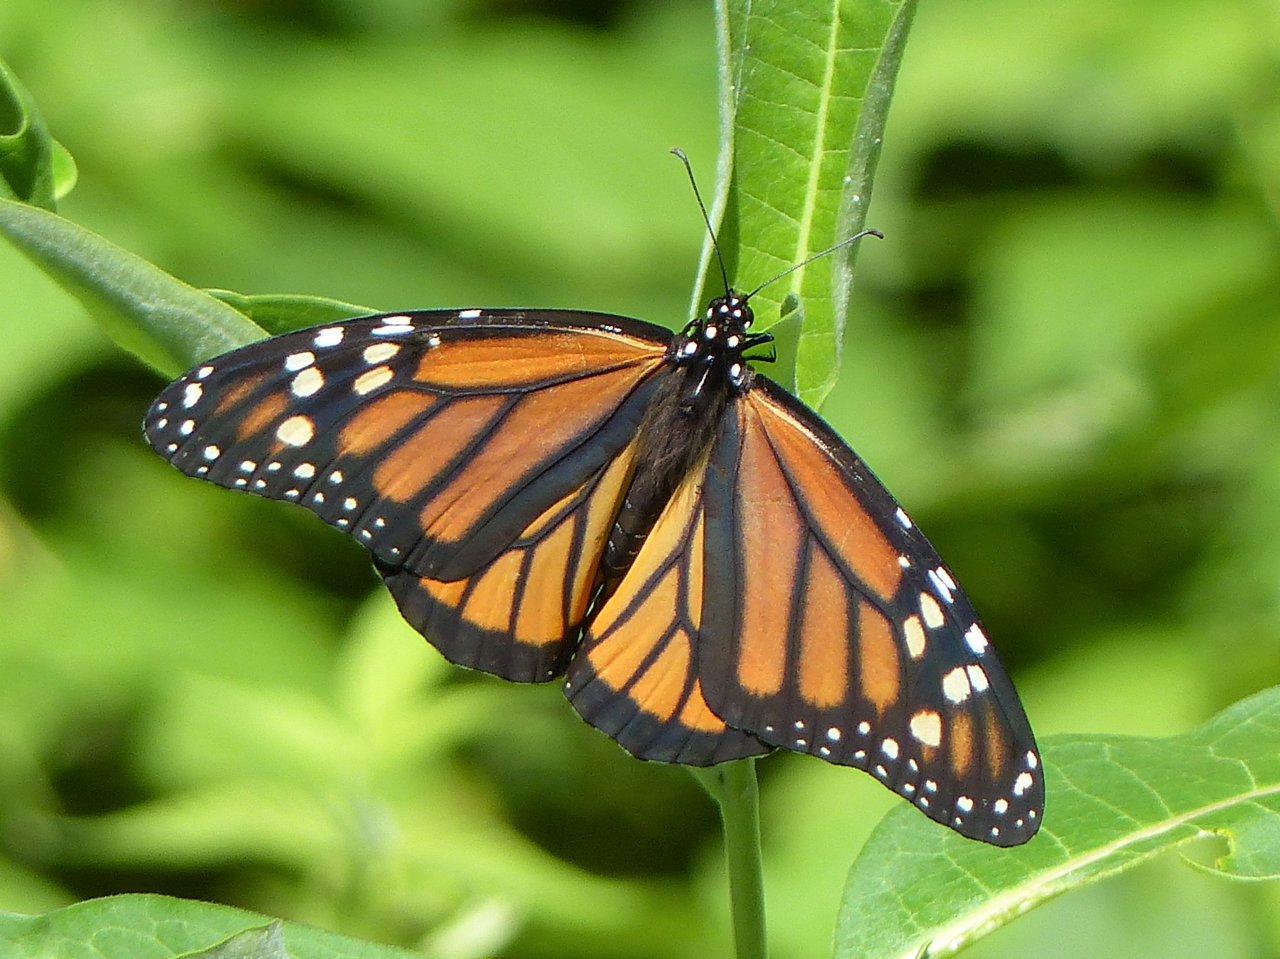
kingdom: Animalia
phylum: Arthropoda
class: Insecta
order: Lepidoptera
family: Nymphalidae
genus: Danaus
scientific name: Danaus plexippus
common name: Monarch
